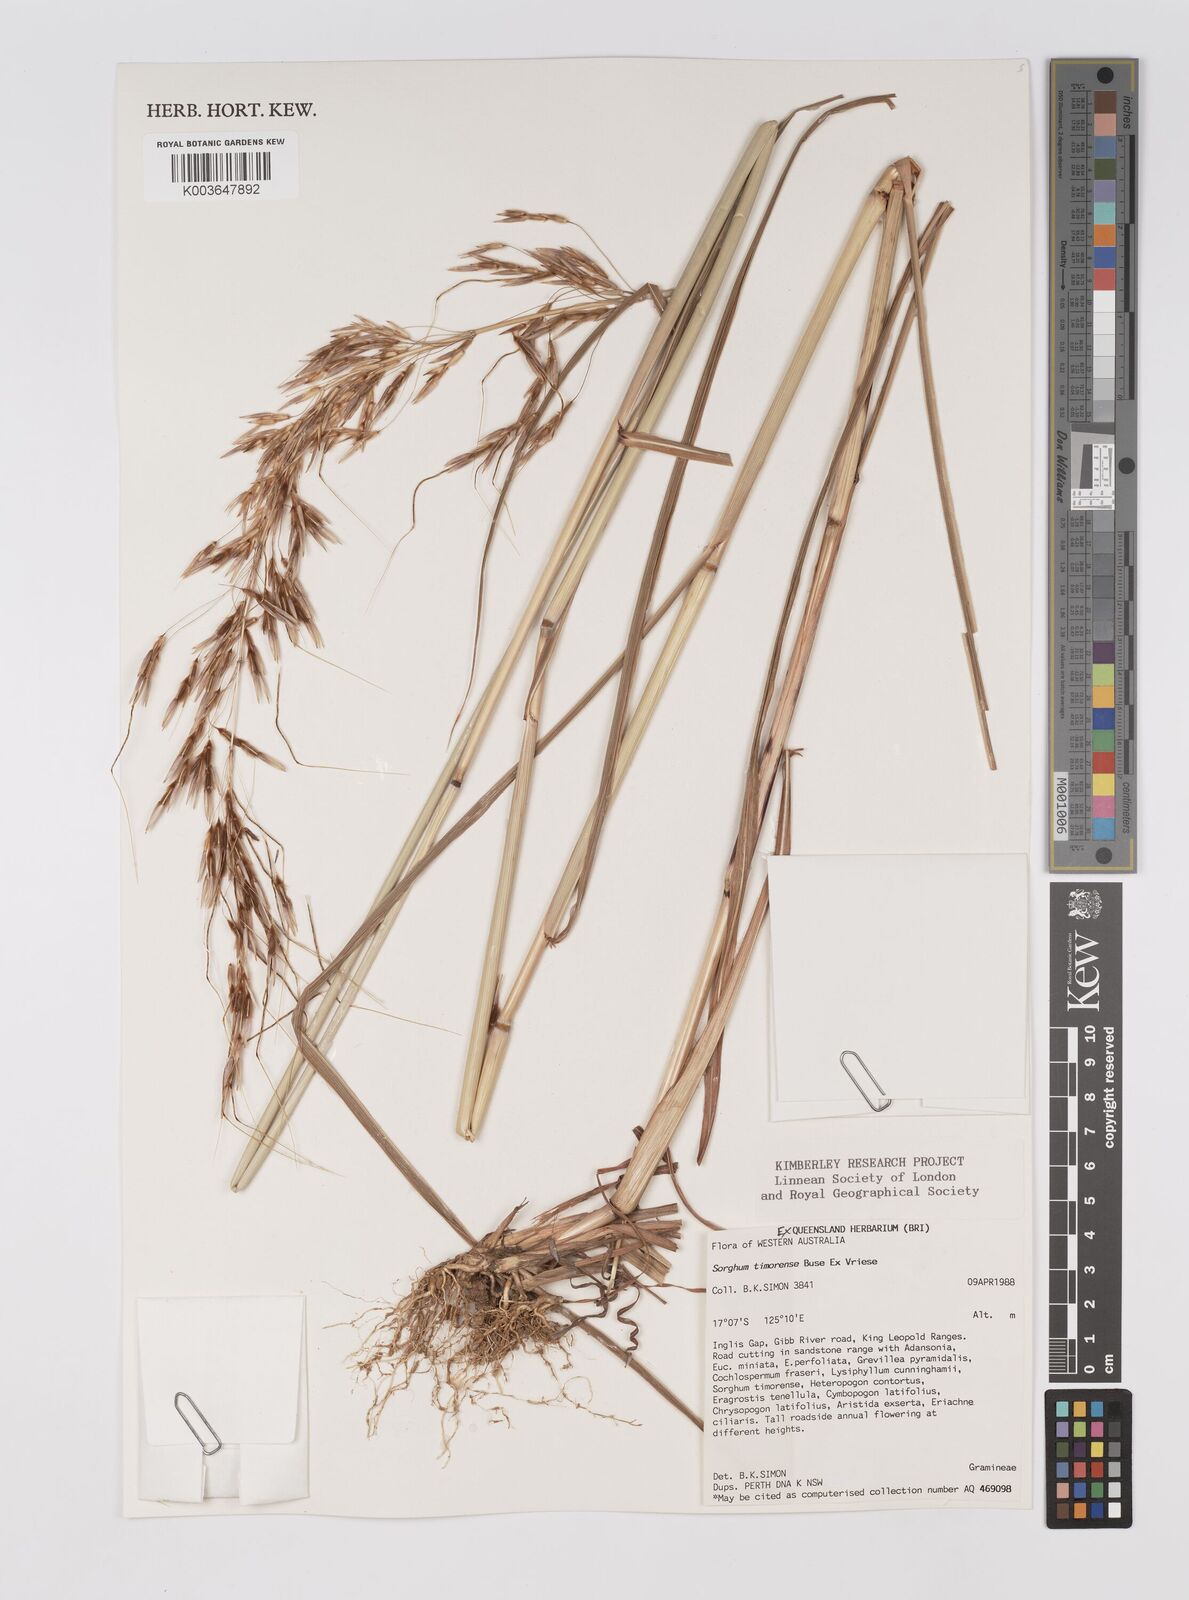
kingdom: Plantae
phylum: Tracheophyta
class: Liliopsida
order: Poales
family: Poaceae
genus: Sarga
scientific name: Sarga timorensis
